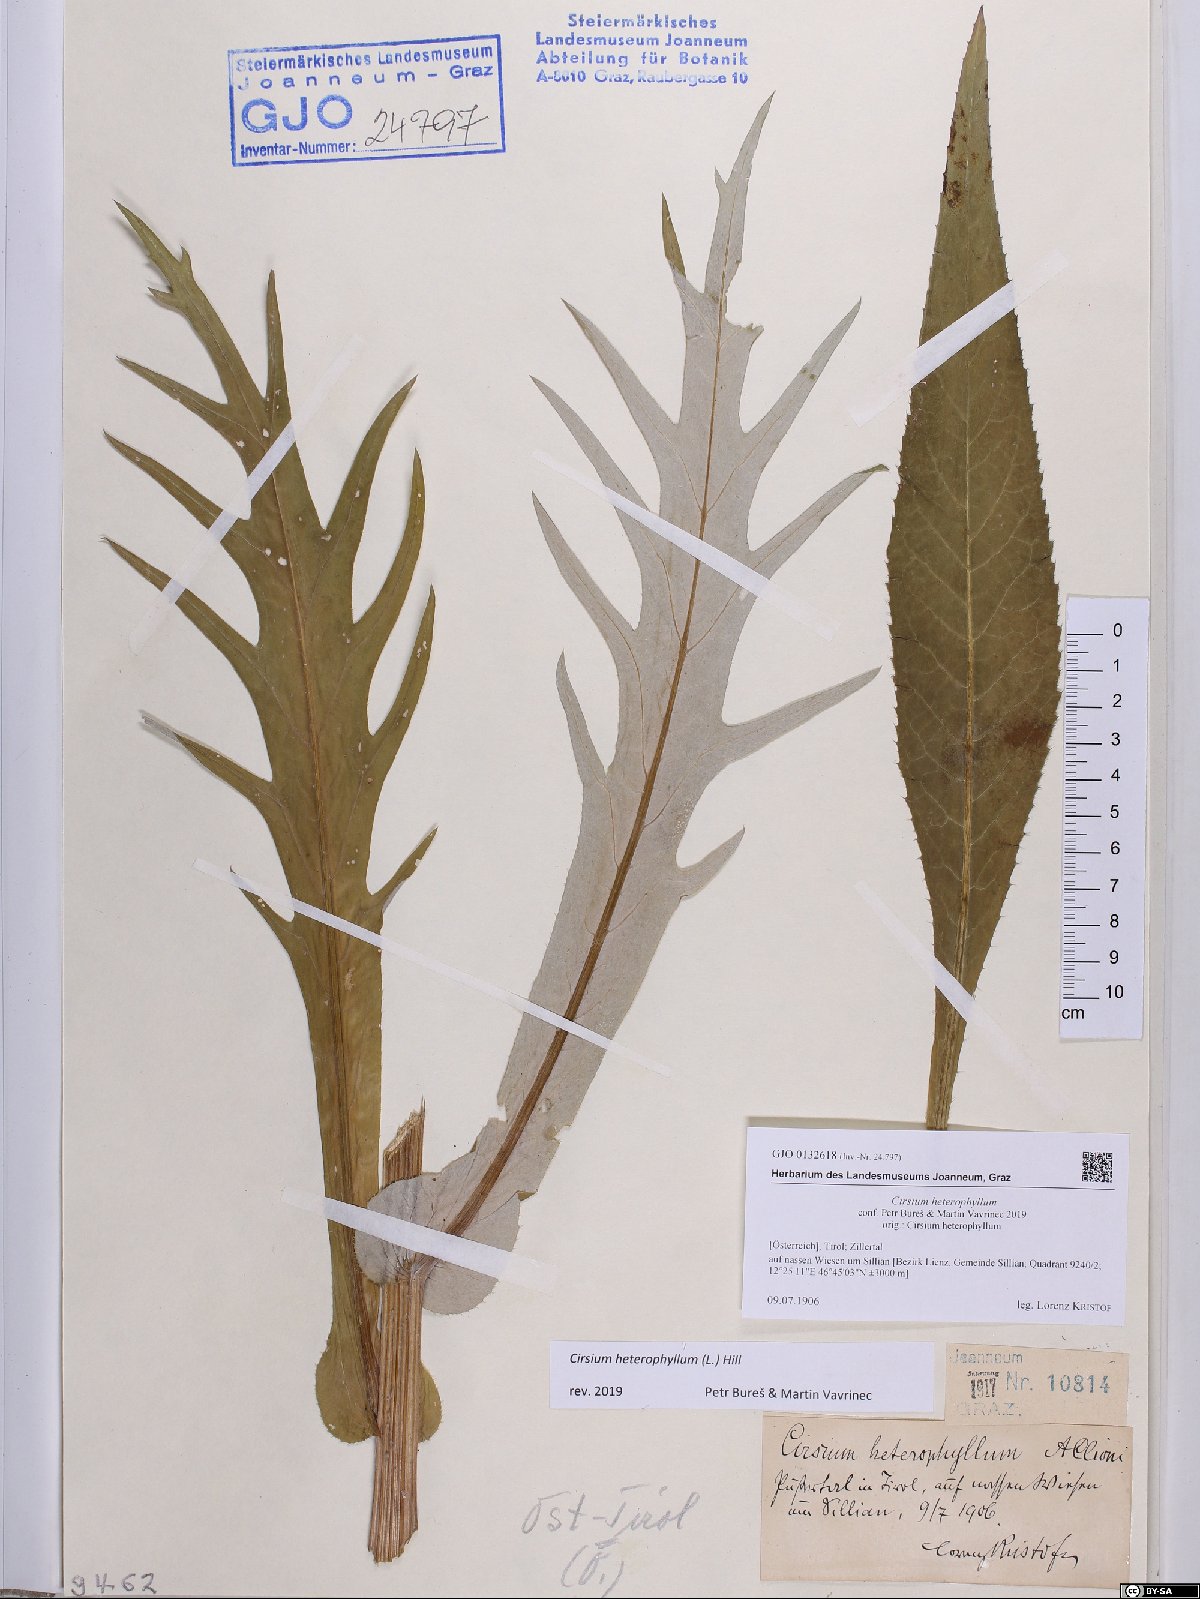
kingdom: Plantae
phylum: Tracheophyta
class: Magnoliopsida
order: Asterales
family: Asteraceae
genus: Cirsium
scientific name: Cirsium heterophyllum
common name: Melancholy thistle
